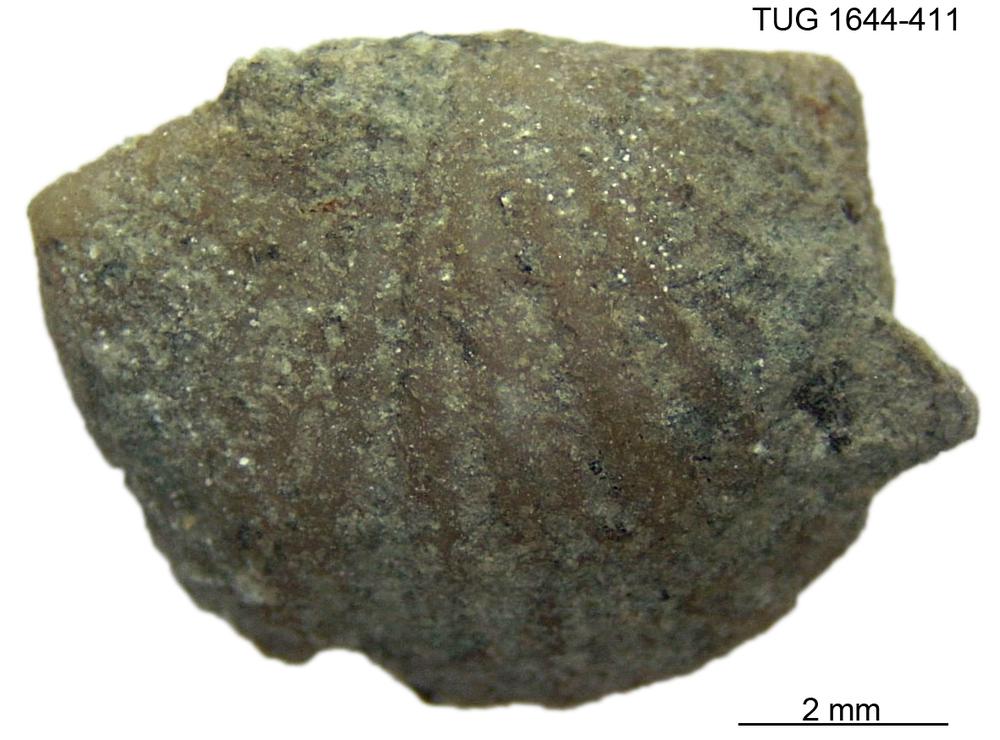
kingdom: Animalia
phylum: Brachiopoda
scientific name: Brachiopoda
